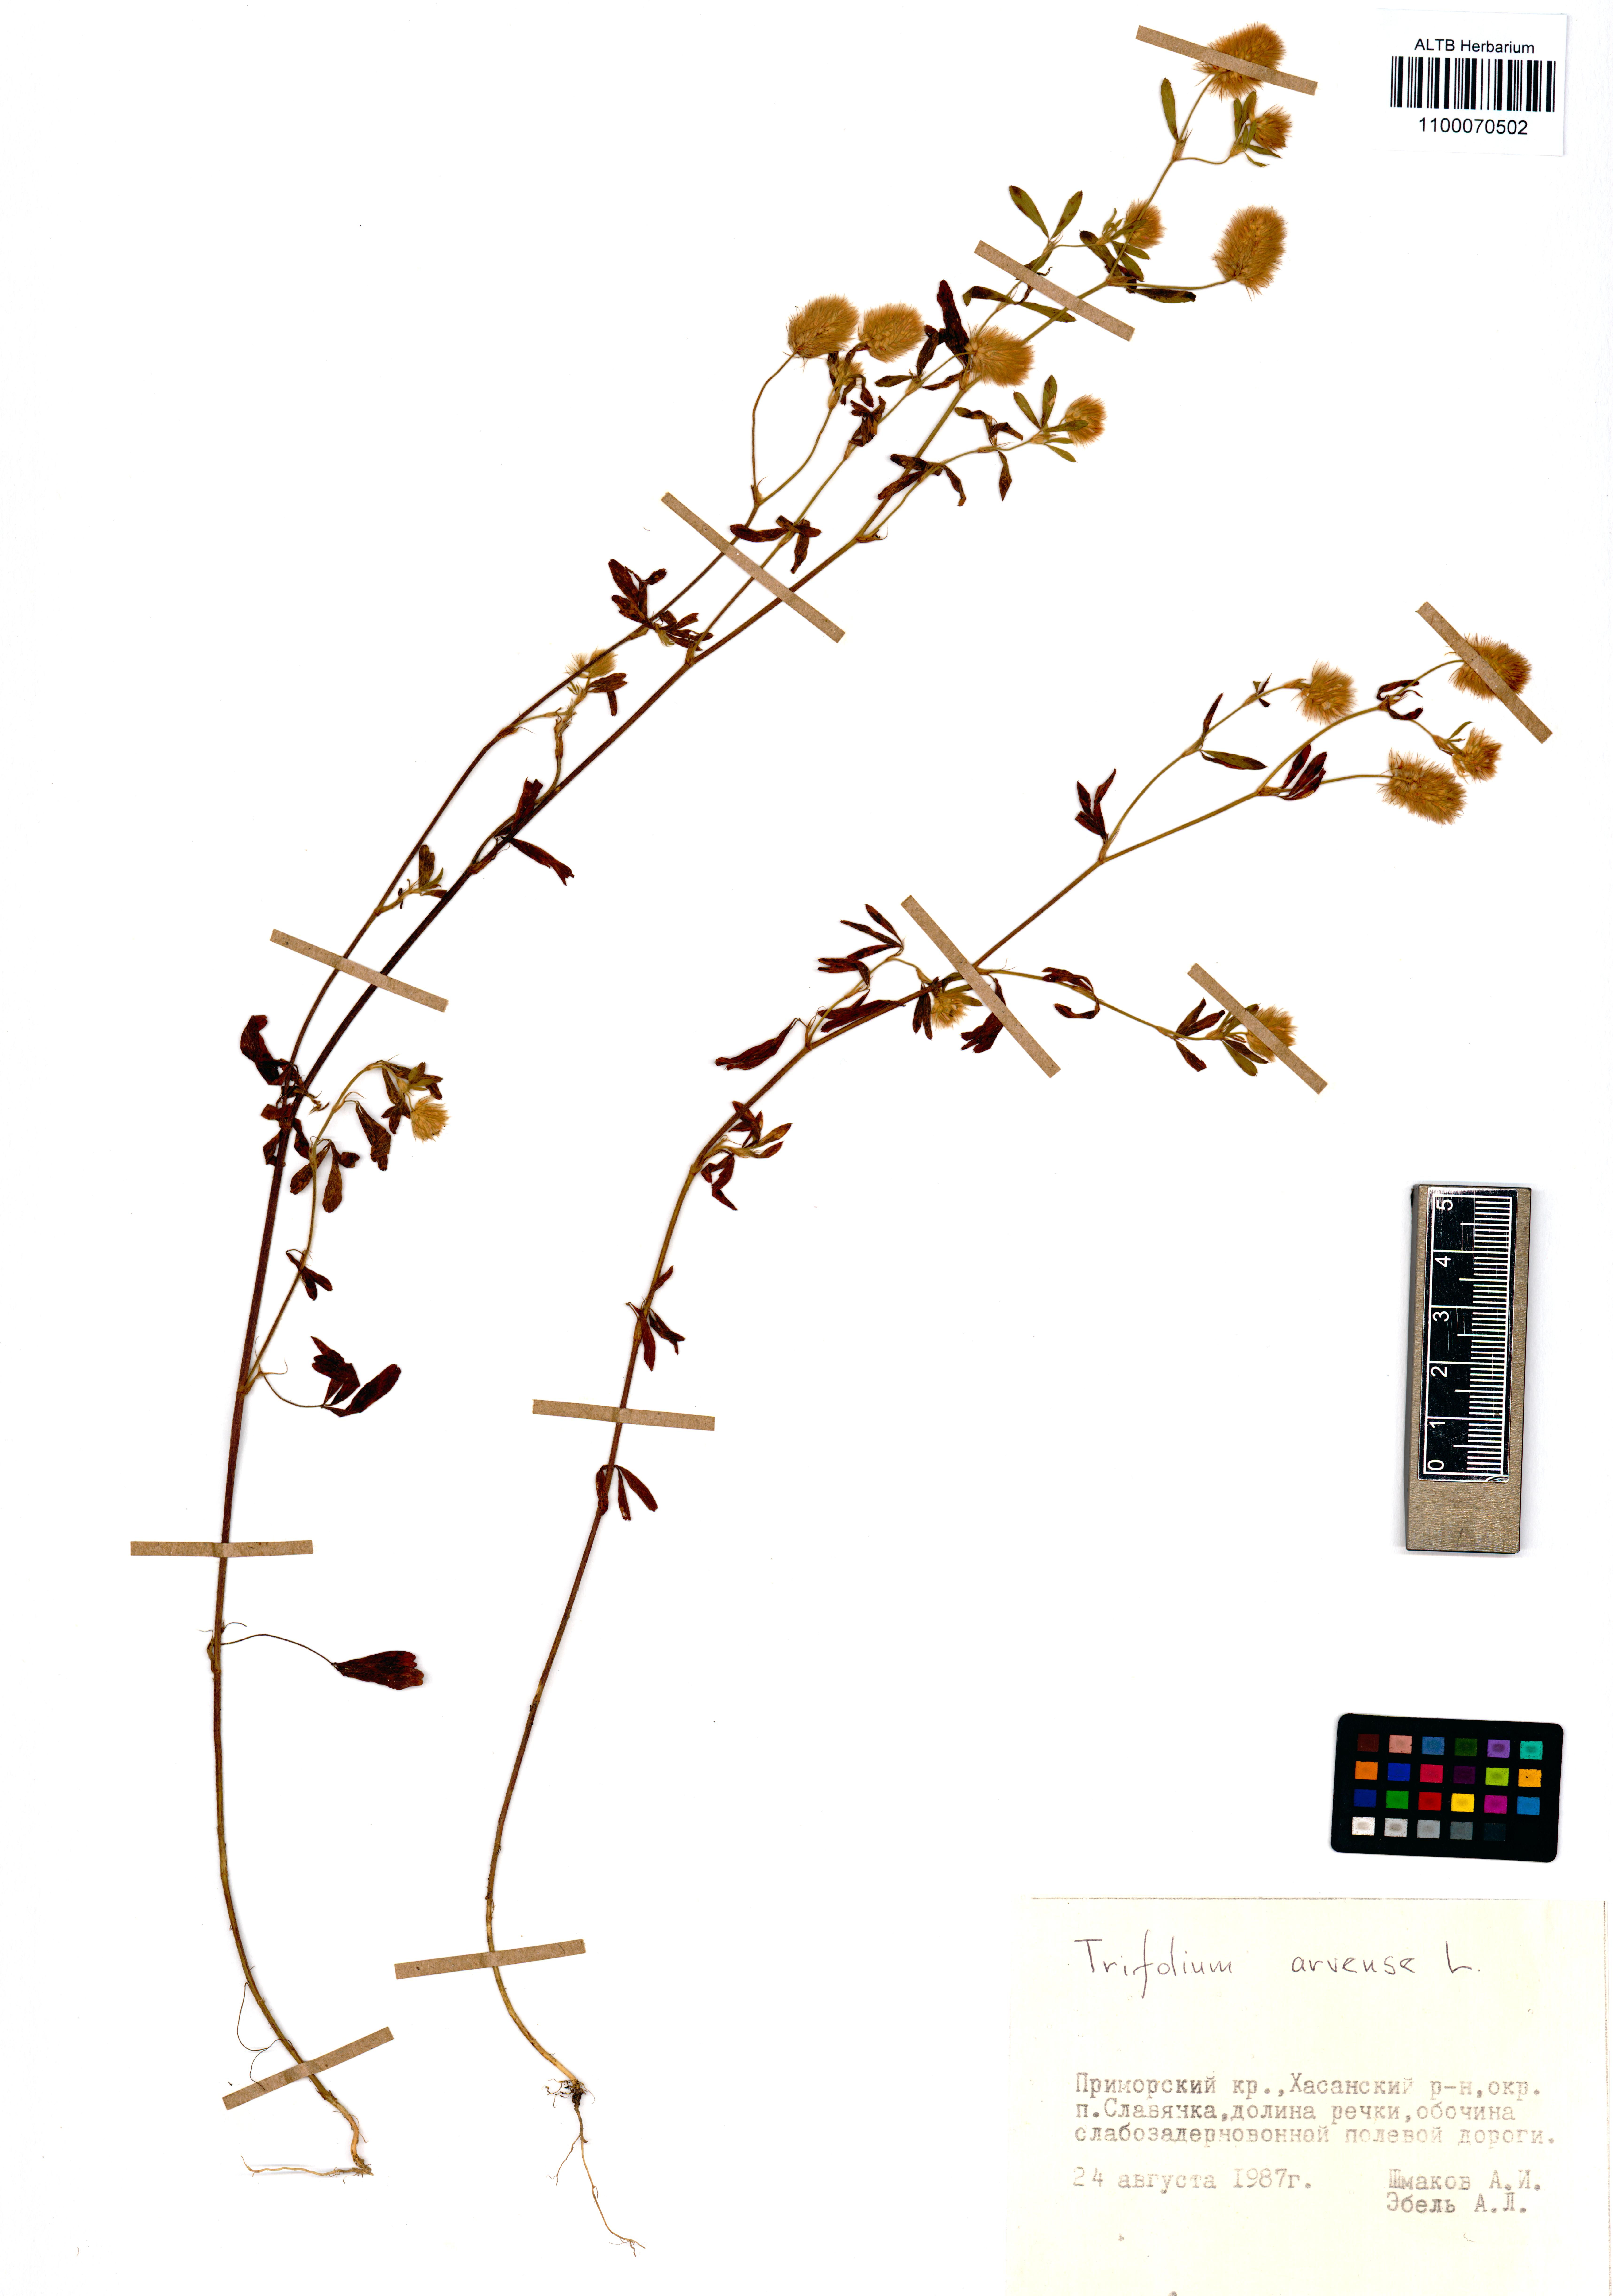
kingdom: Plantae
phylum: Tracheophyta
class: Magnoliopsida
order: Fabales
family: Fabaceae
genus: Trifolium
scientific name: Trifolium arvense
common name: Hare's-foot clover
